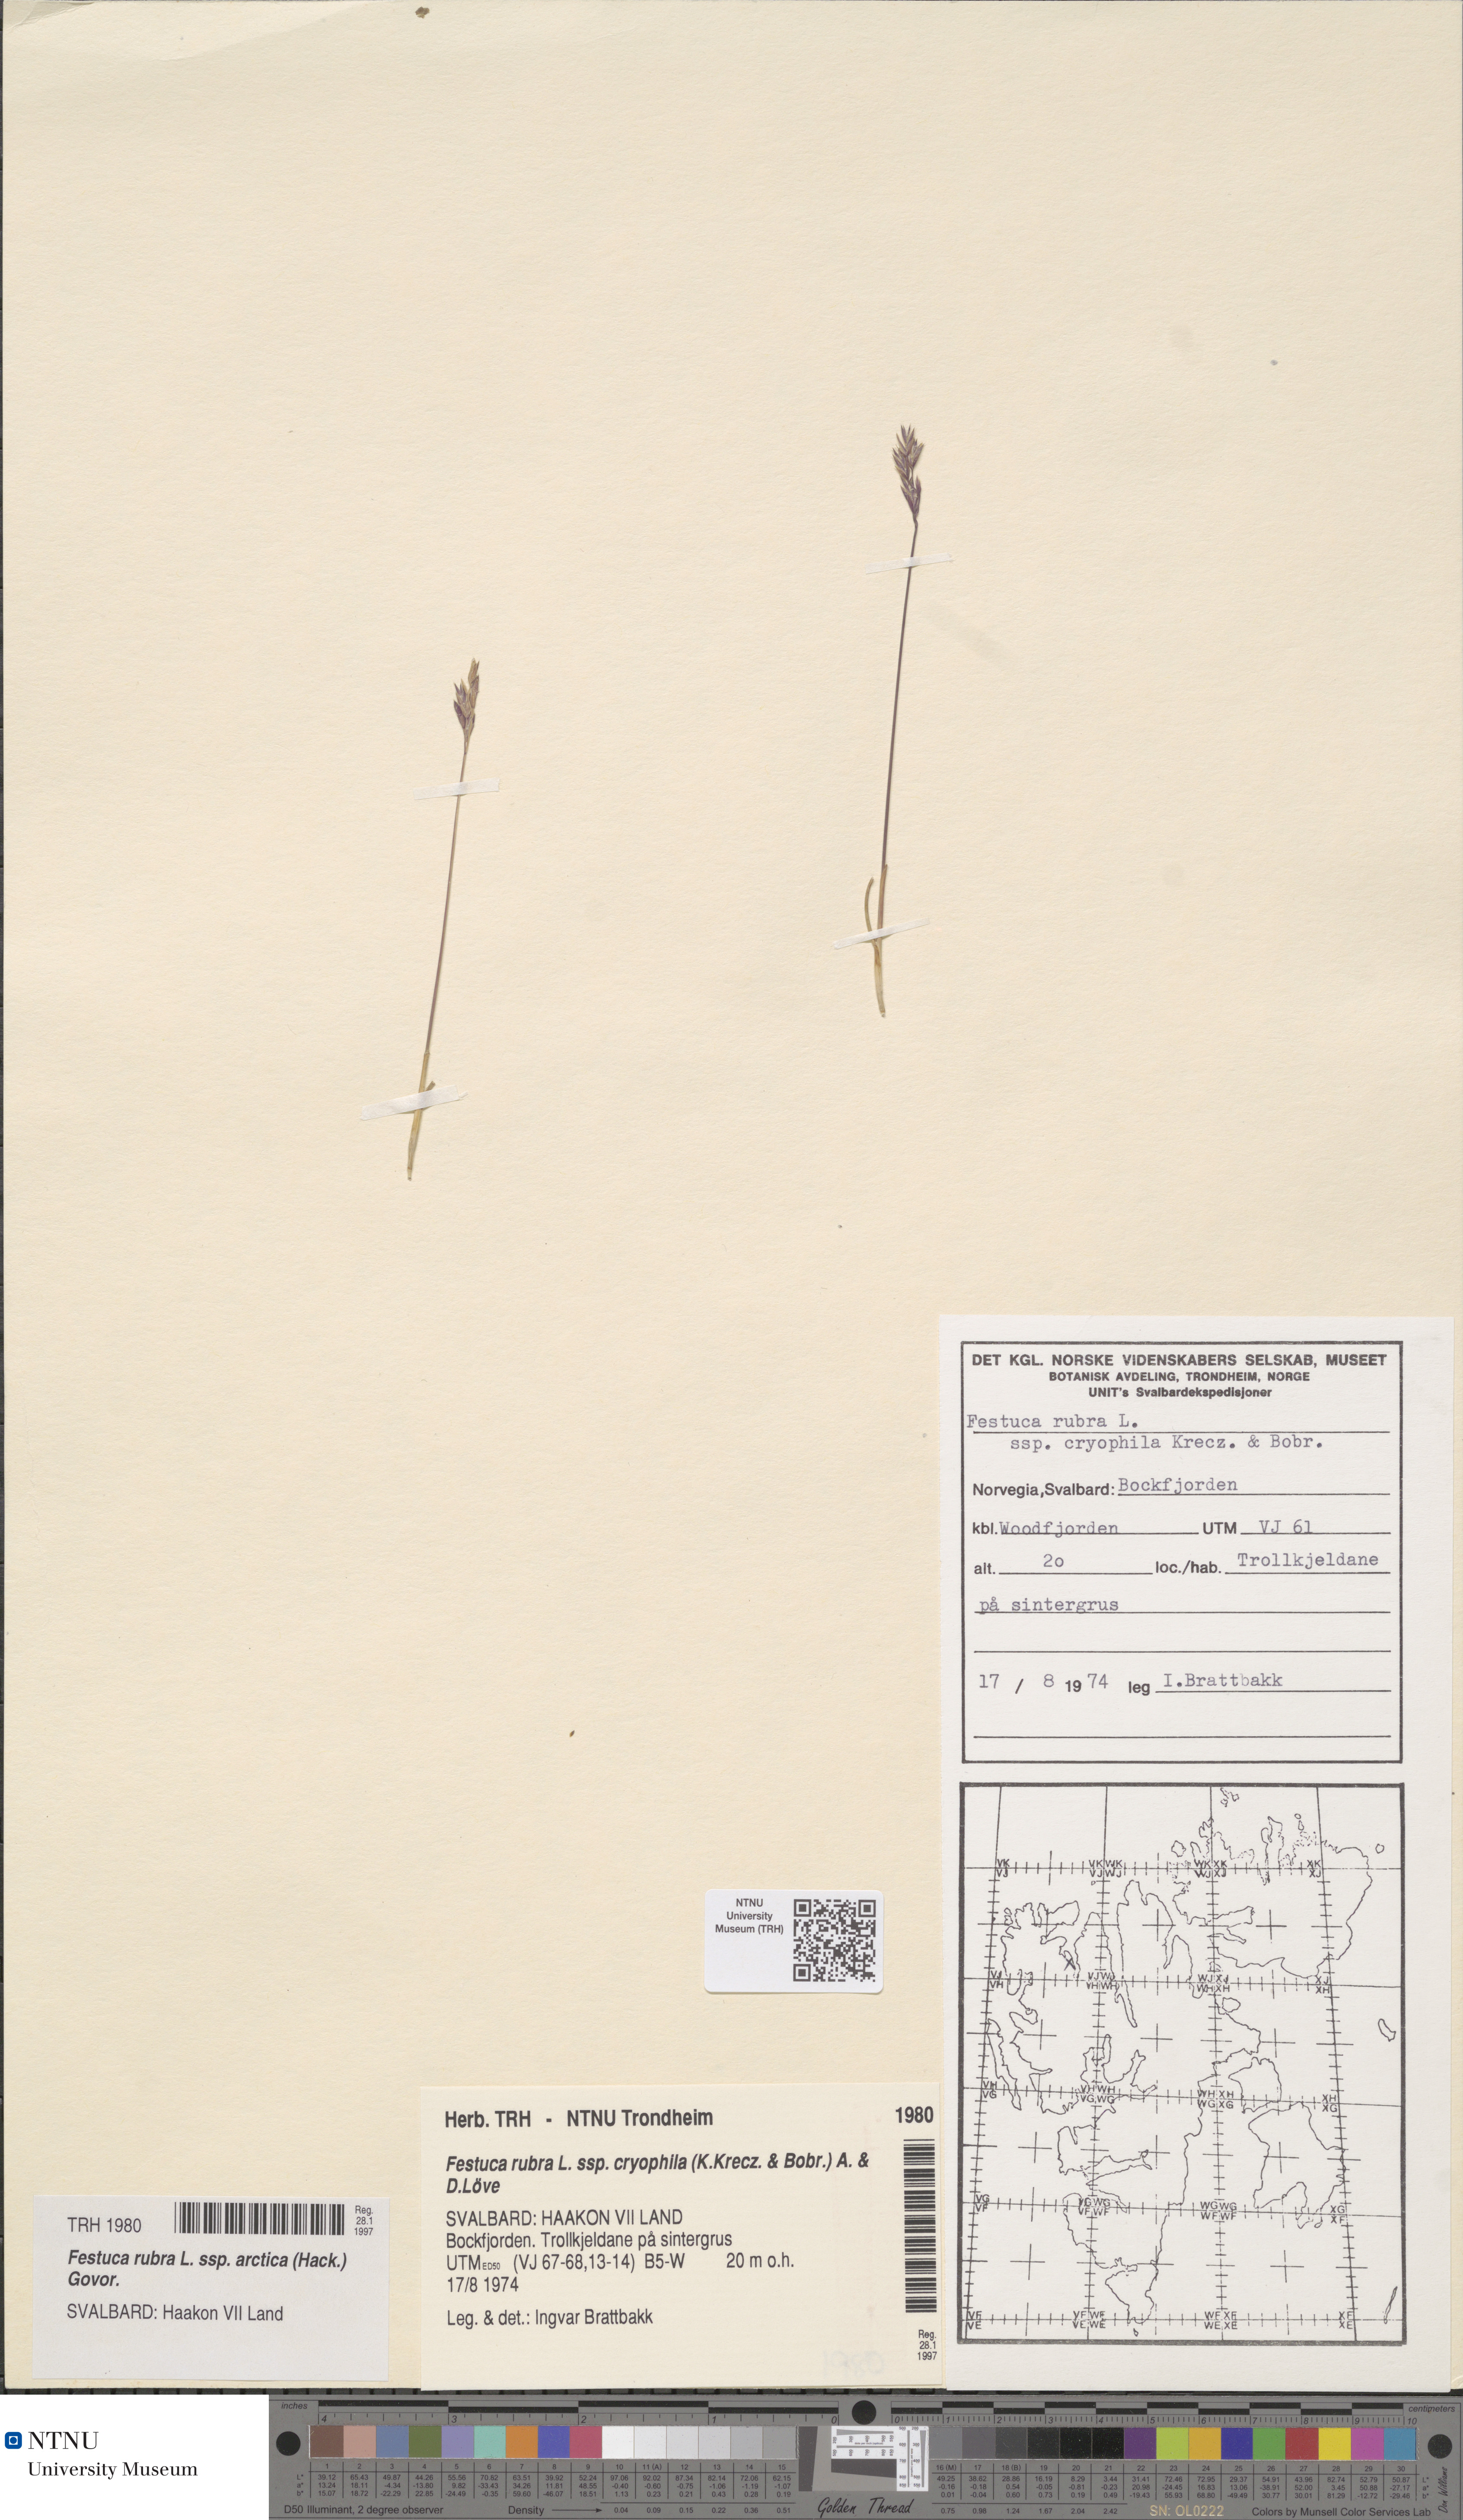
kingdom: Plantae
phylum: Tracheophyta
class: Liliopsida
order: Poales
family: Poaceae
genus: Festuca
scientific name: Festuca richardsonii
